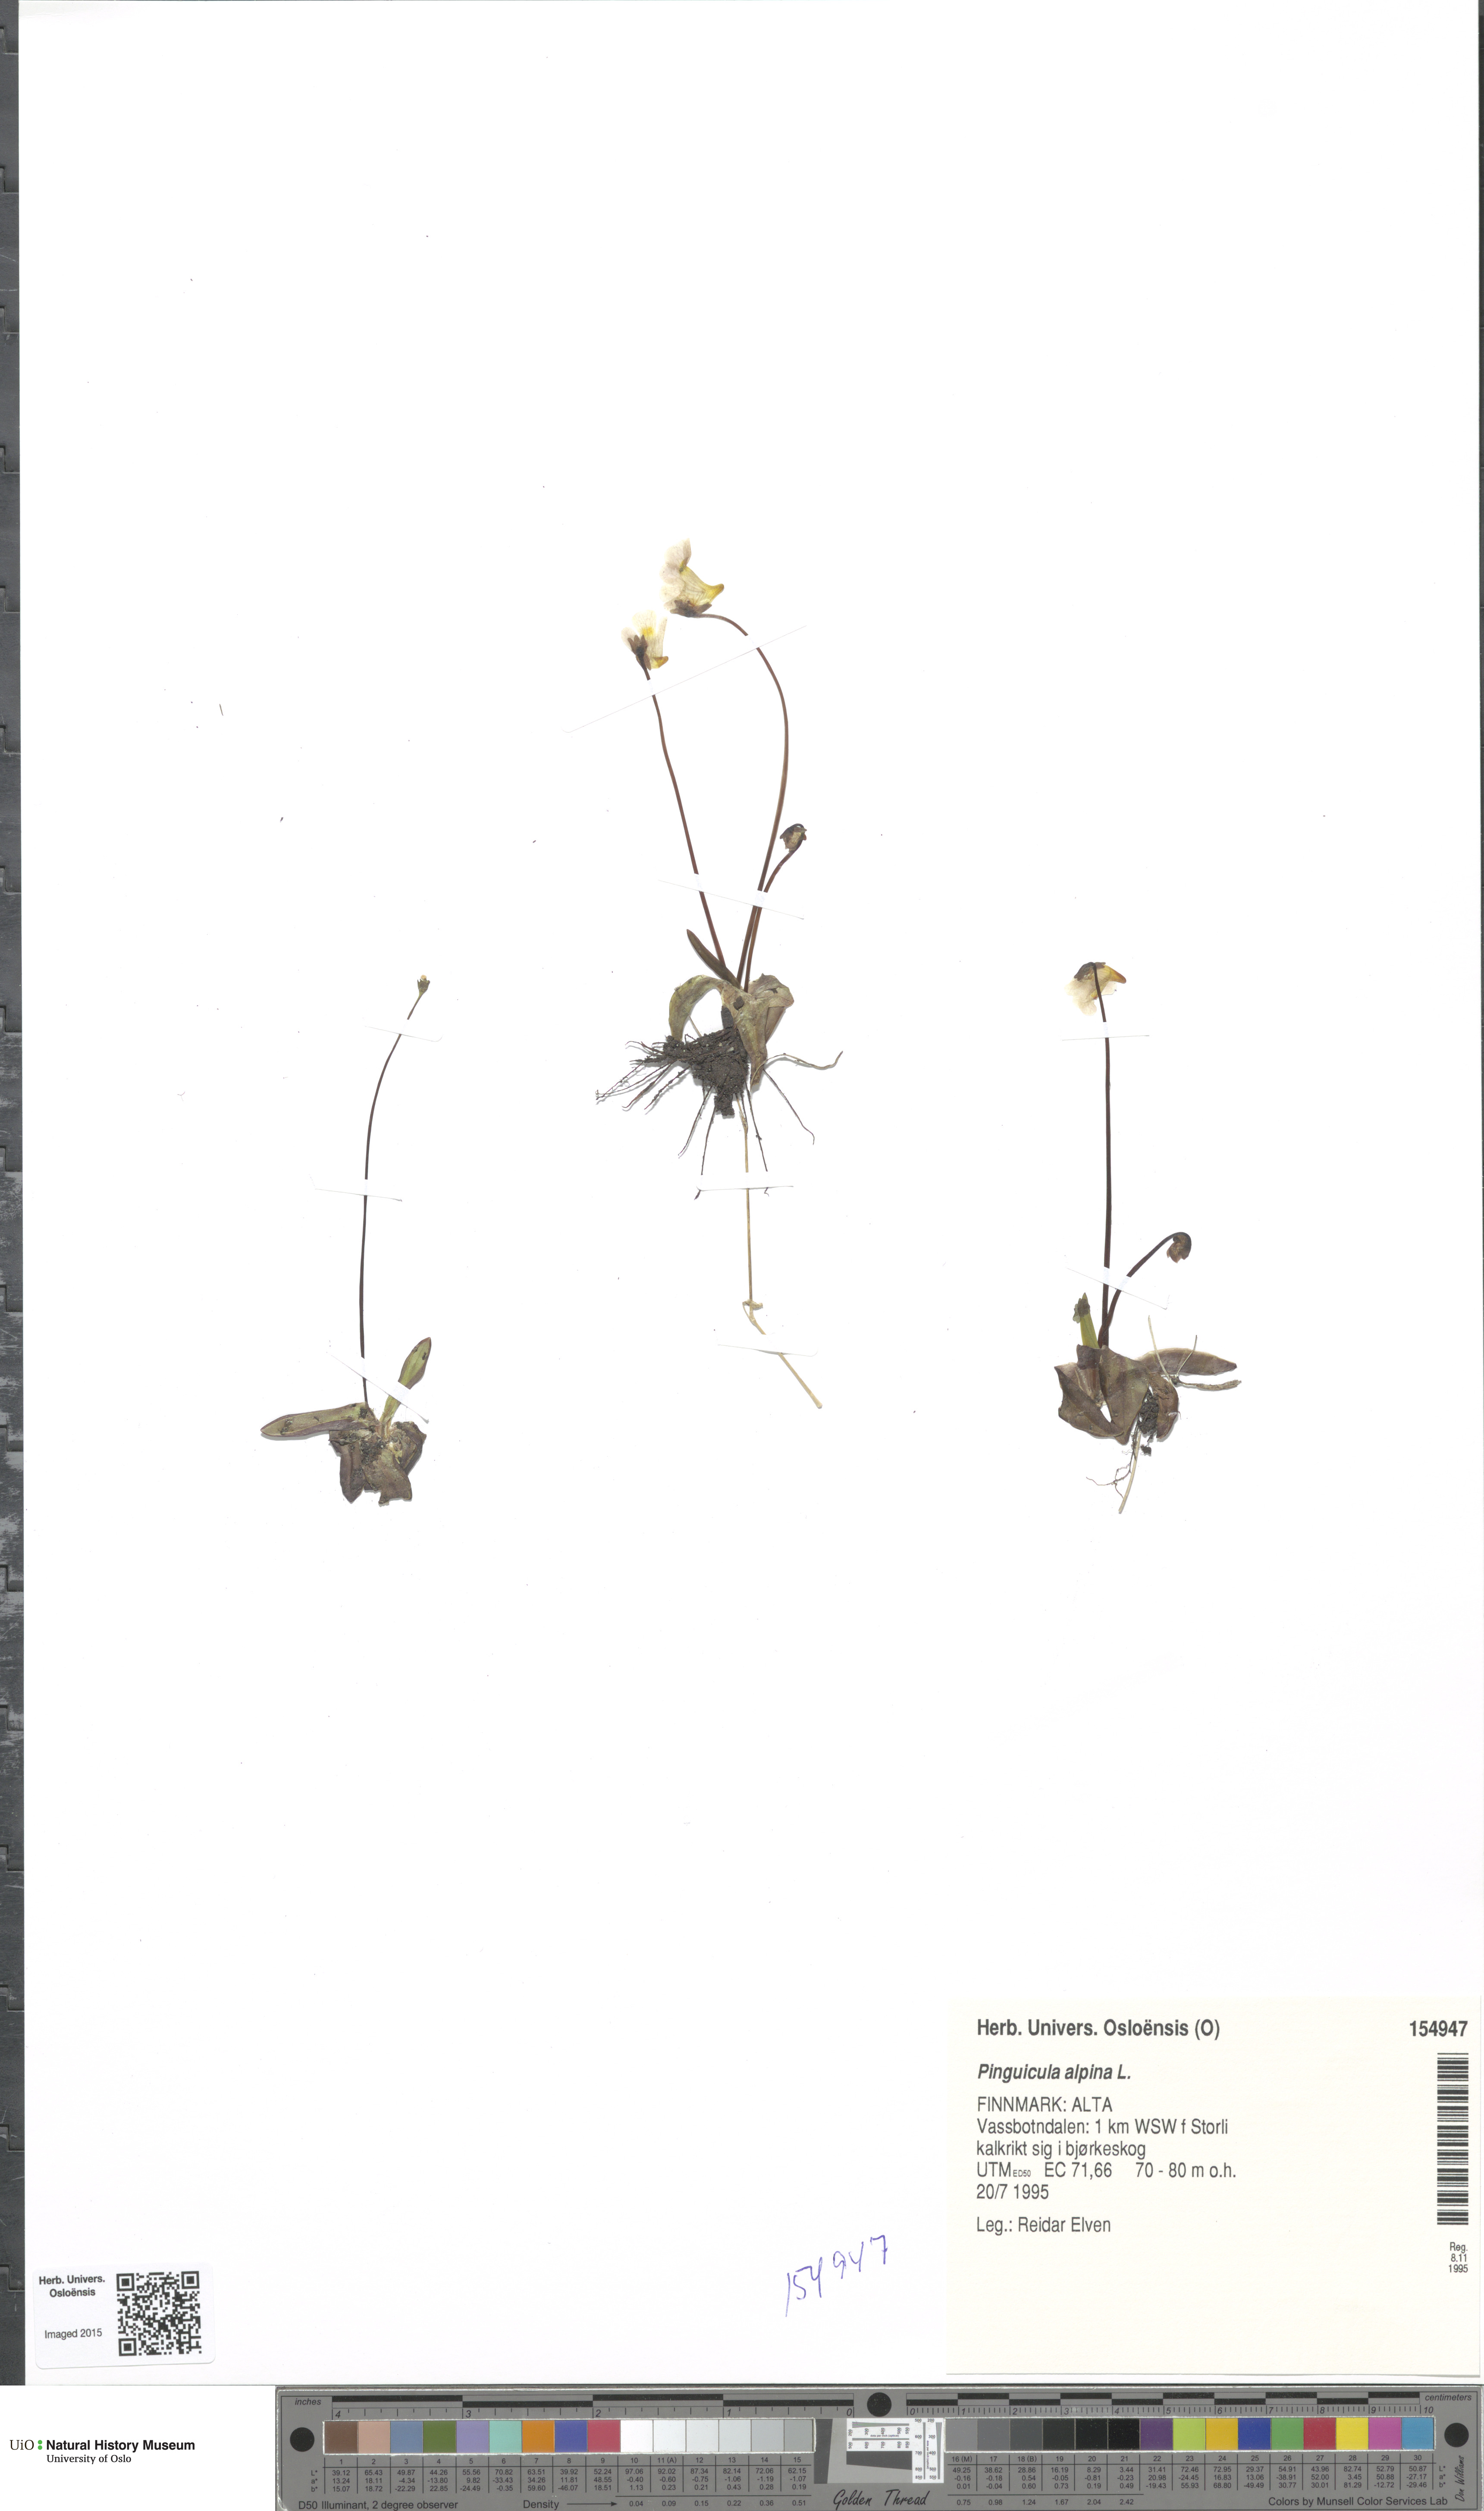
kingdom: Plantae
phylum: Tracheophyta
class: Magnoliopsida
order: Lamiales
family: Lentibulariaceae
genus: Pinguicula
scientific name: Pinguicula alpina
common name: Alpine butterwort
